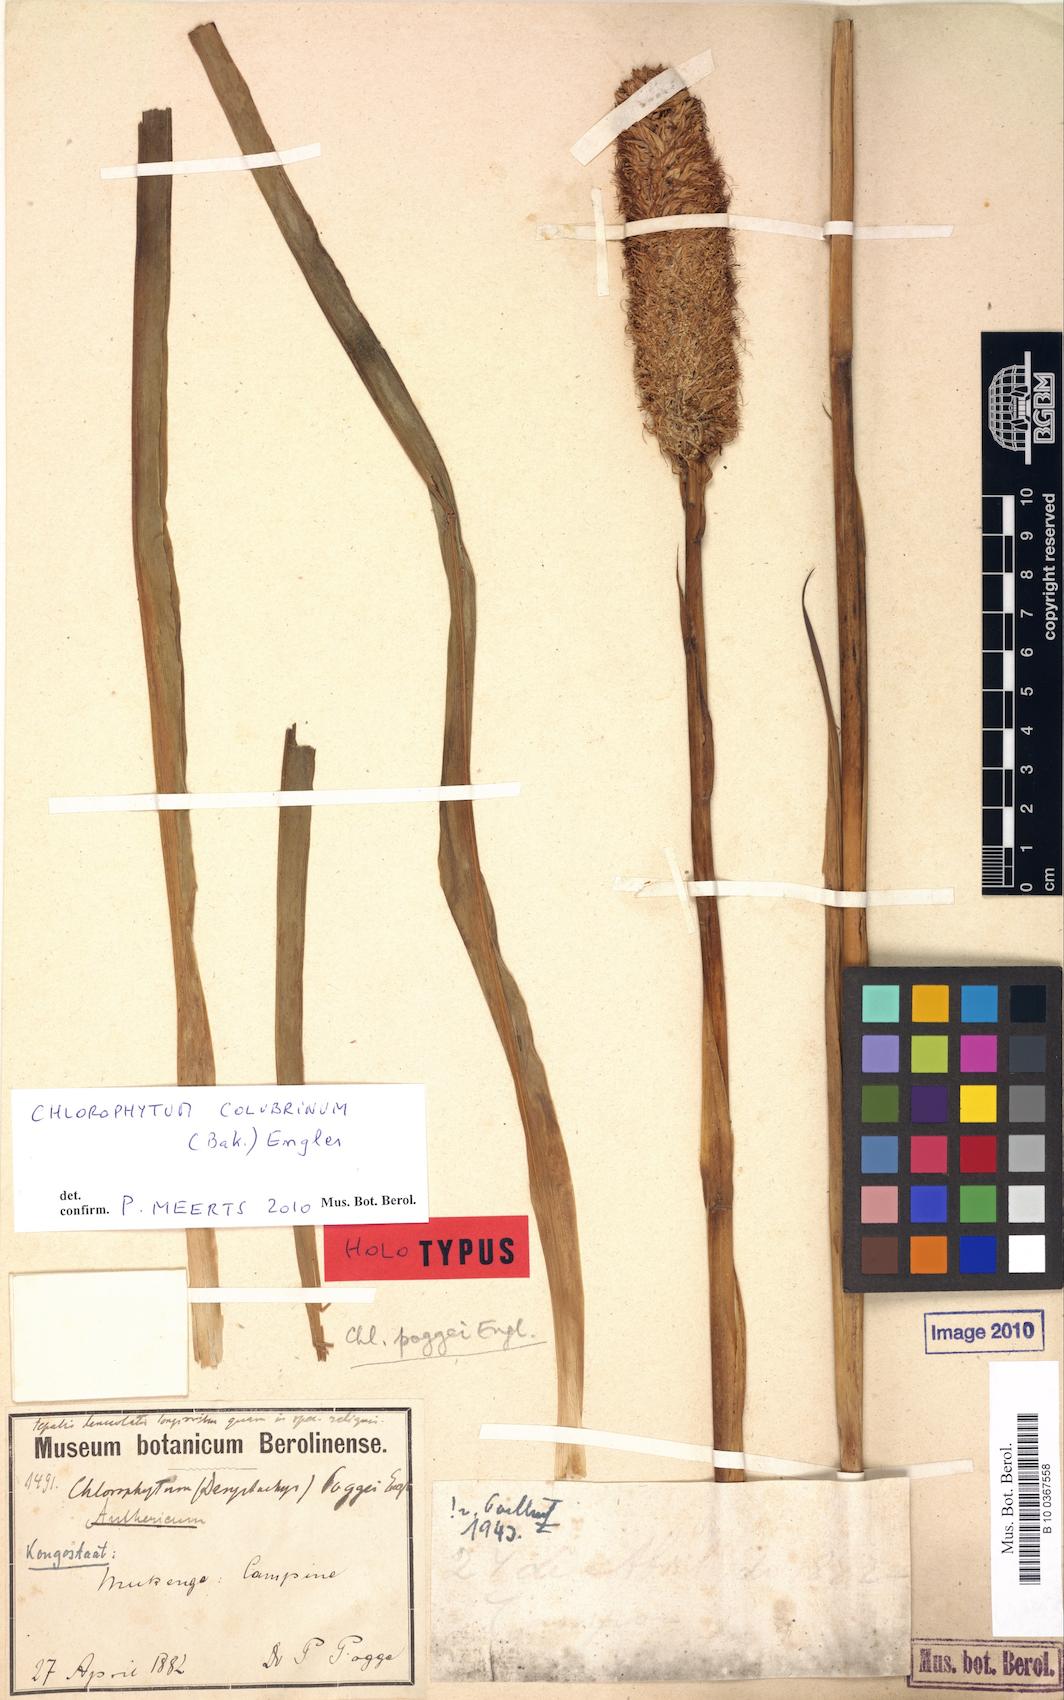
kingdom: Plantae
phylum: Tracheophyta
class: Liliopsida
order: Asparagales
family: Asparagaceae
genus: Chlorophytum
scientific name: Chlorophytum colubrinum
